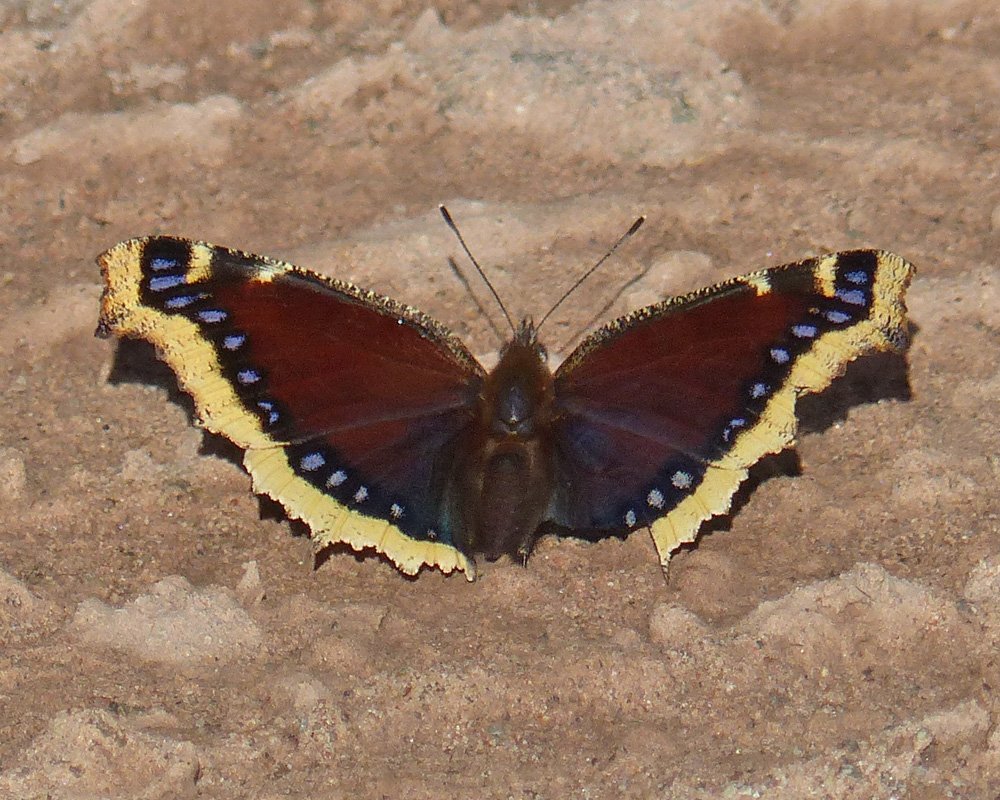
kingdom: Animalia
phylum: Arthropoda
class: Insecta
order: Lepidoptera
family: Nymphalidae
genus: Nymphalis
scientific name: Nymphalis antiopa
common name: Mourning Cloak
